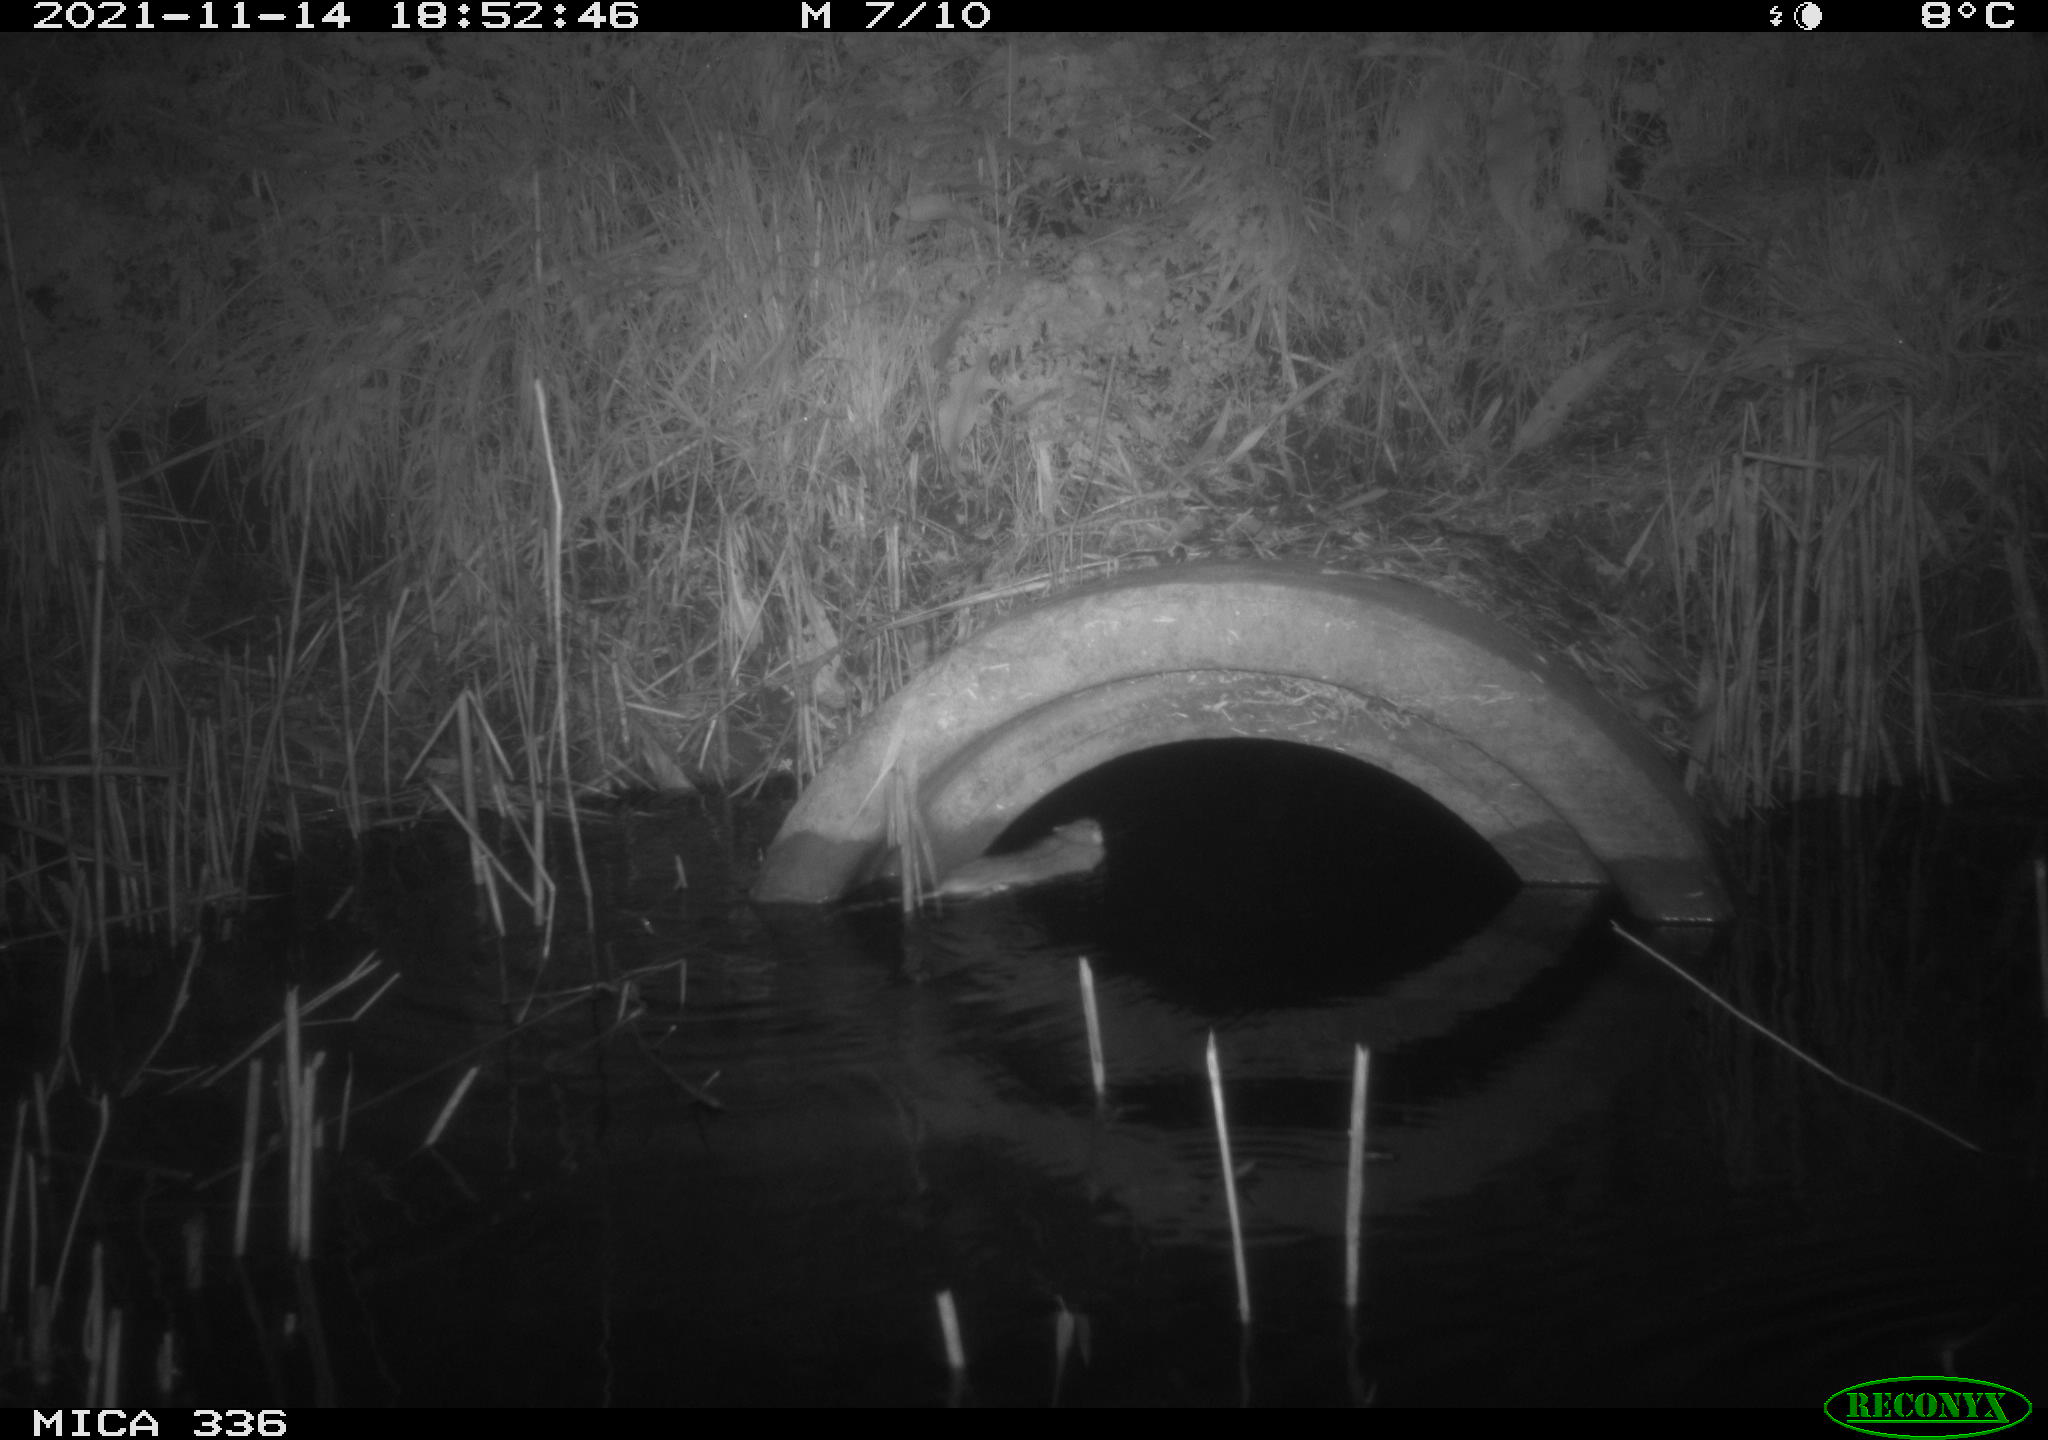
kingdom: Animalia
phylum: Chordata
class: Mammalia
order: Rodentia
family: Muridae
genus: Rattus
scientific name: Rattus norvegicus
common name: Brown rat
